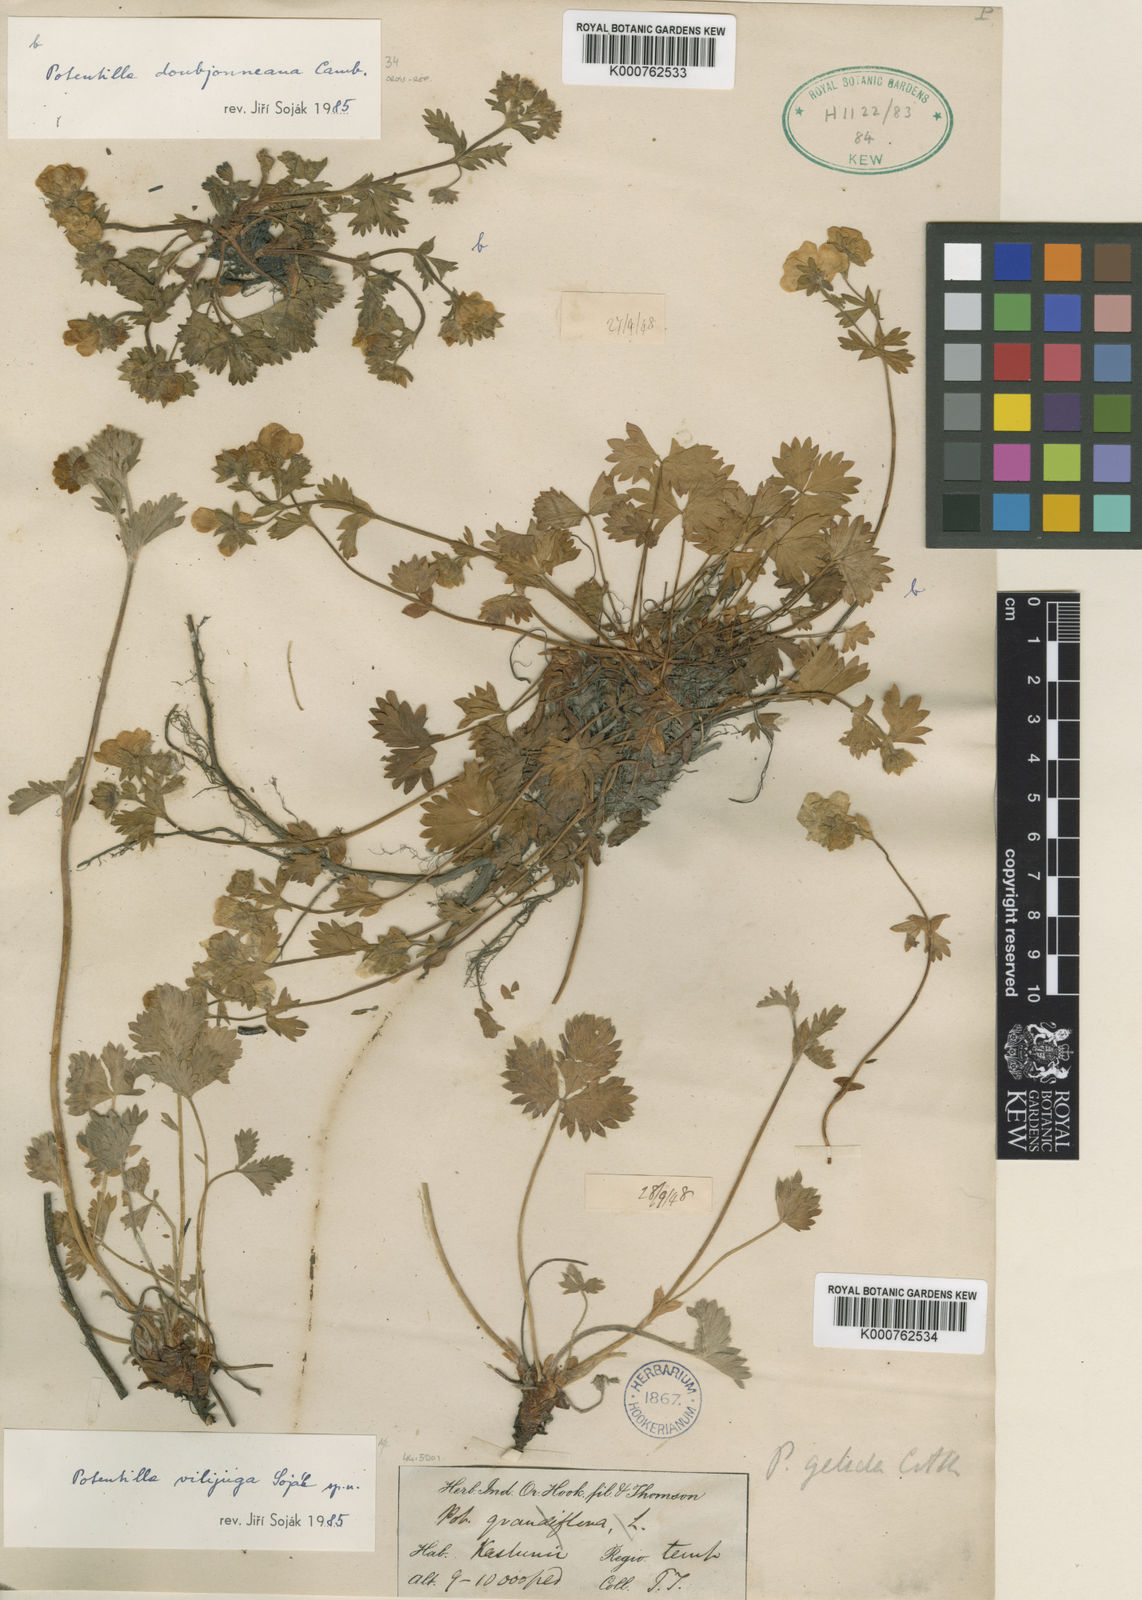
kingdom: Plantae
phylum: Tracheophyta
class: Magnoliopsida
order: Rosales
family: Rosaceae
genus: Potentilla
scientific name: Potentilla
